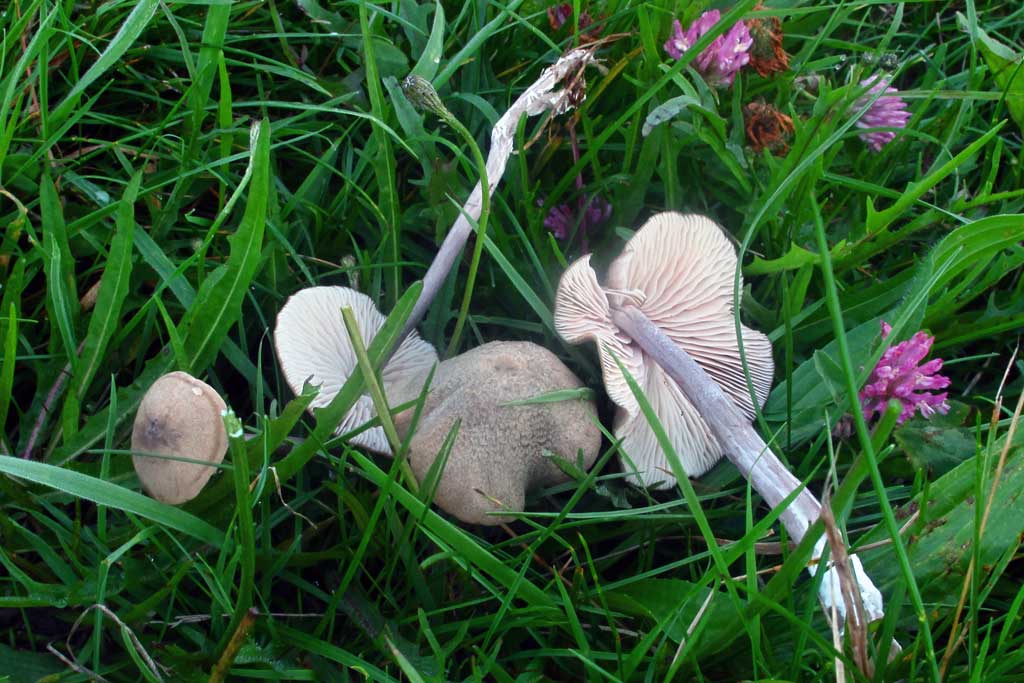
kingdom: Fungi
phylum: Basidiomycota
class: Agaricomycetes
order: Agaricales
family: Entolomataceae
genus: Entoloma
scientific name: Entoloma griseocyaneum
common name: gråblå rødblad
